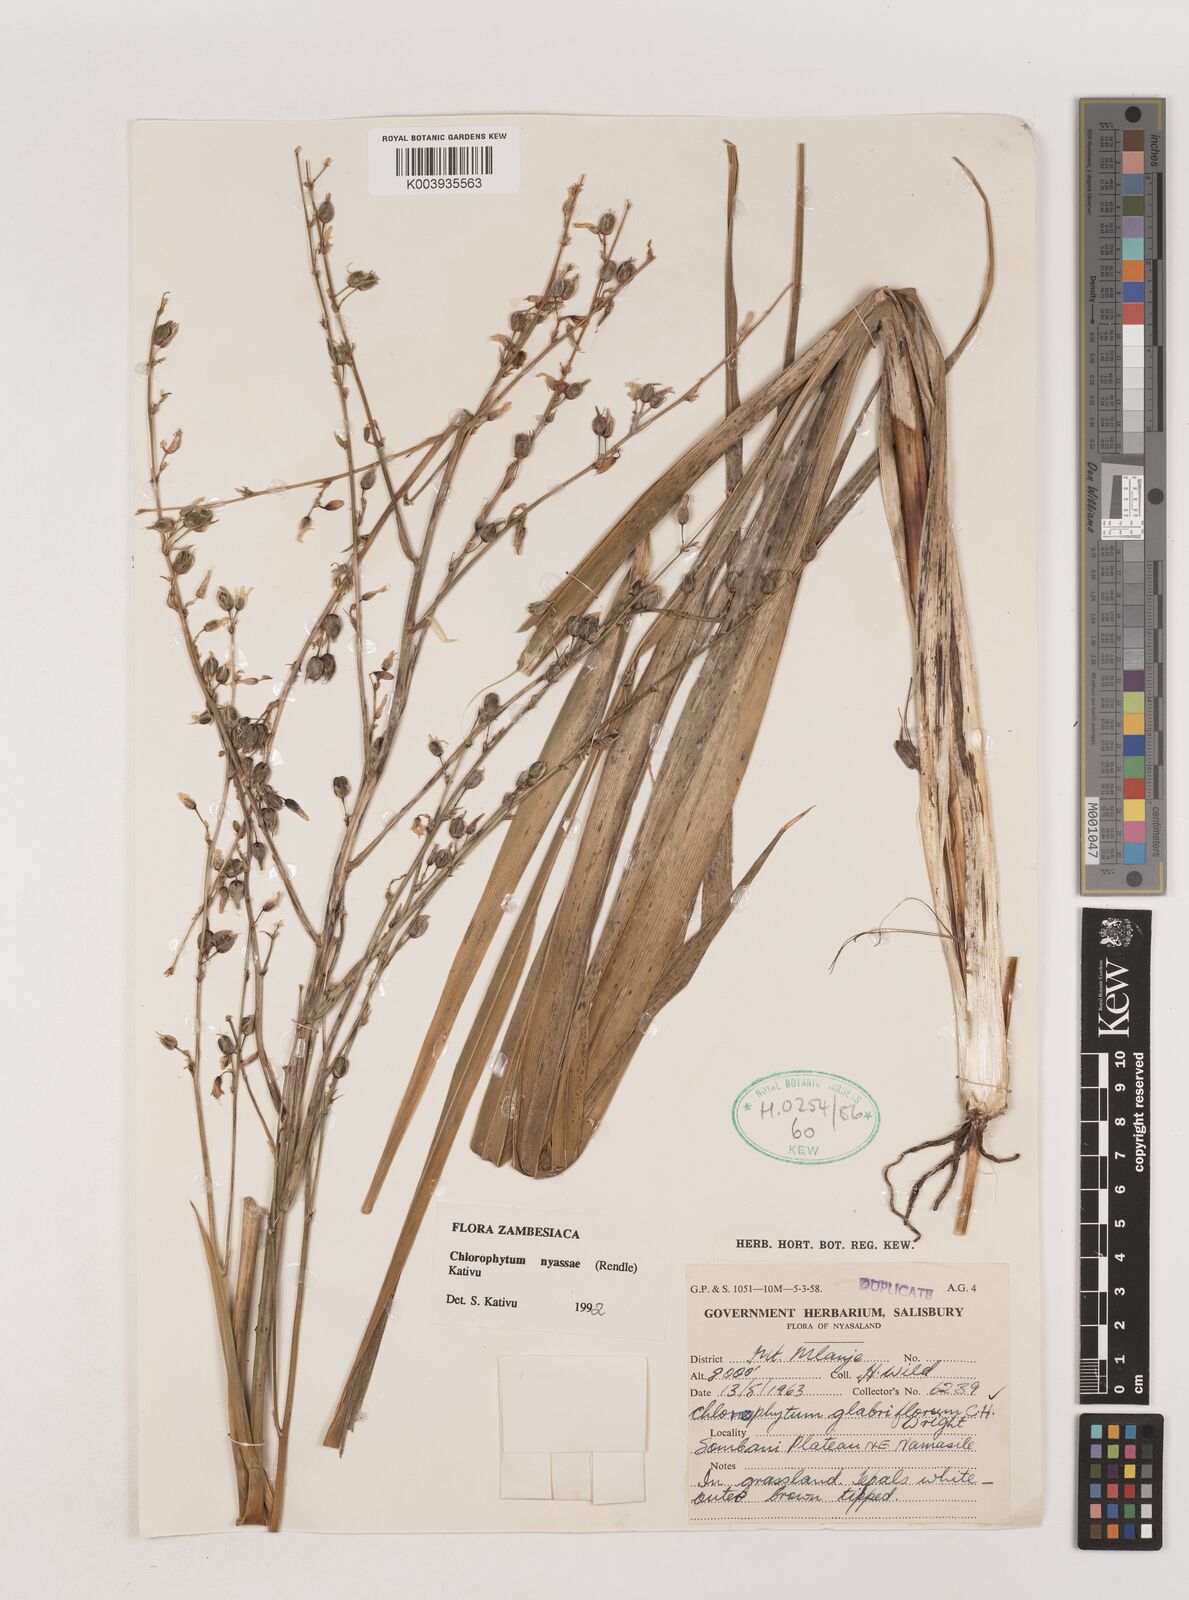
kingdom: Plantae
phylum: Tracheophyta
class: Liliopsida
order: Asparagales
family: Asparagaceae
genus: Chlorophytum
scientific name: Chlorophytum nyasae
